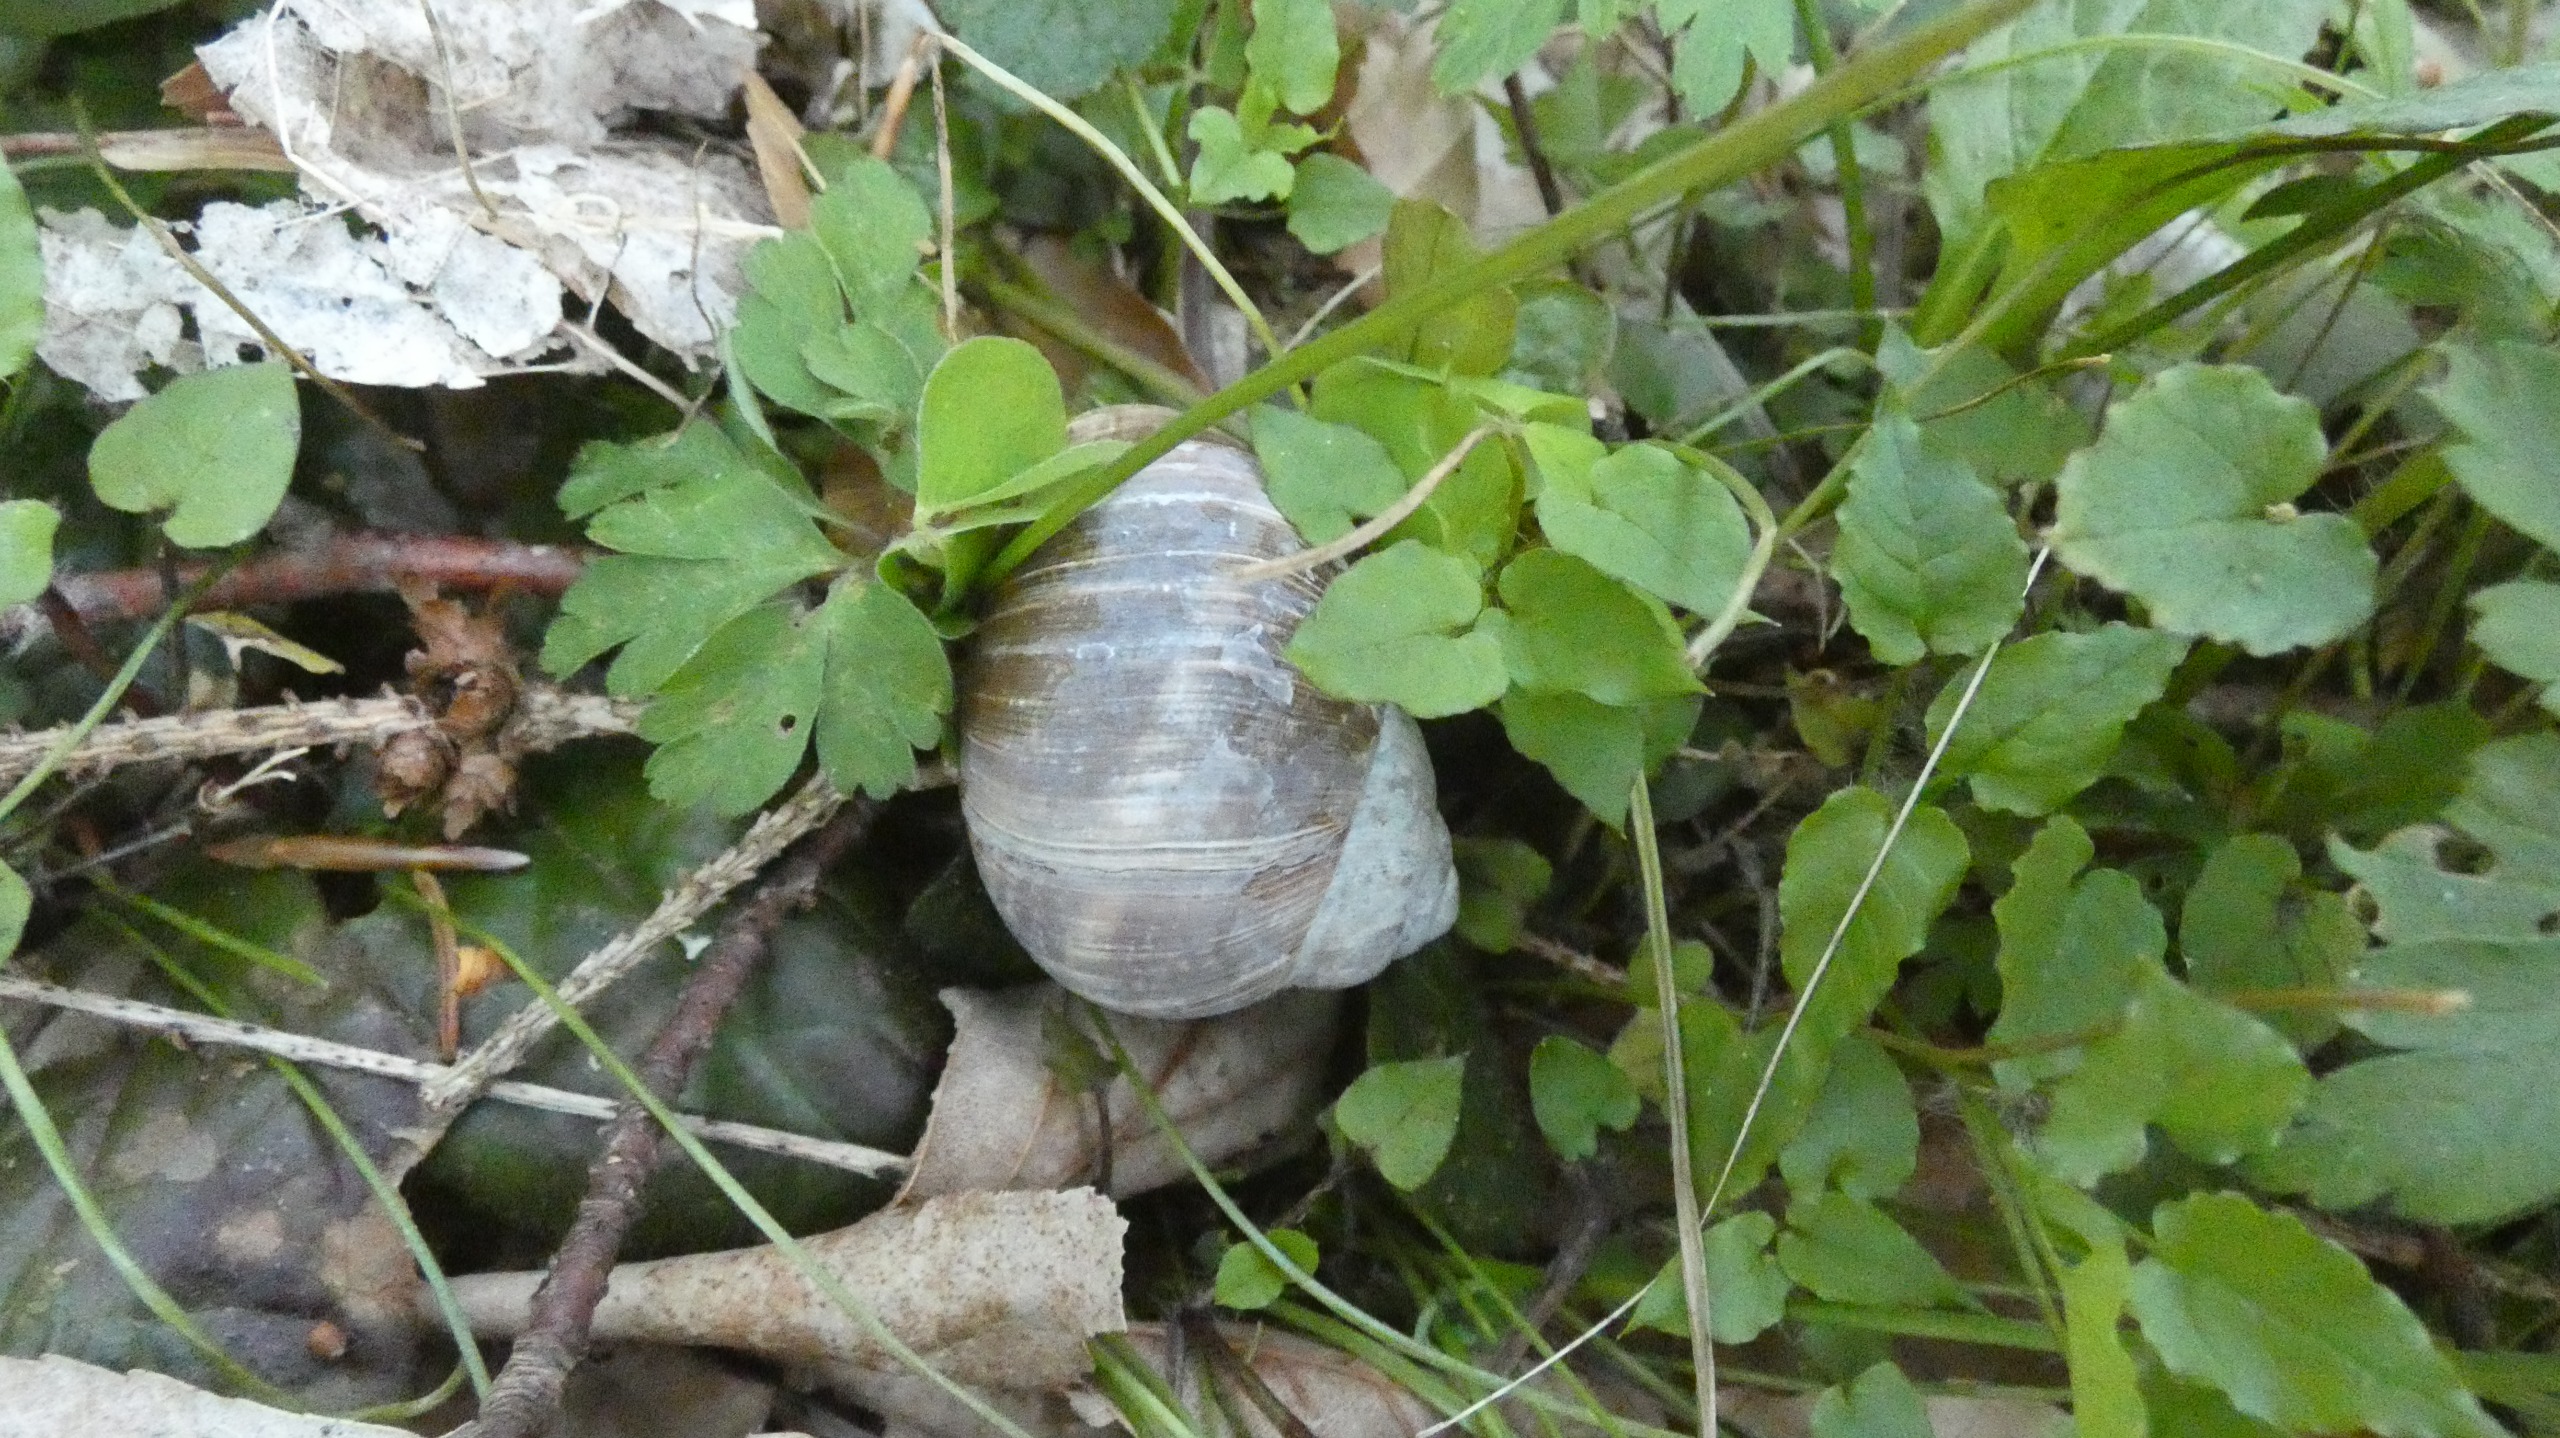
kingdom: Animalia
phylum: Mollusca
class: Gastropoda
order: Stylommatophora
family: Helicidae
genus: Helix
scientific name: Helix pomatia
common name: Vinbjergsnegl
